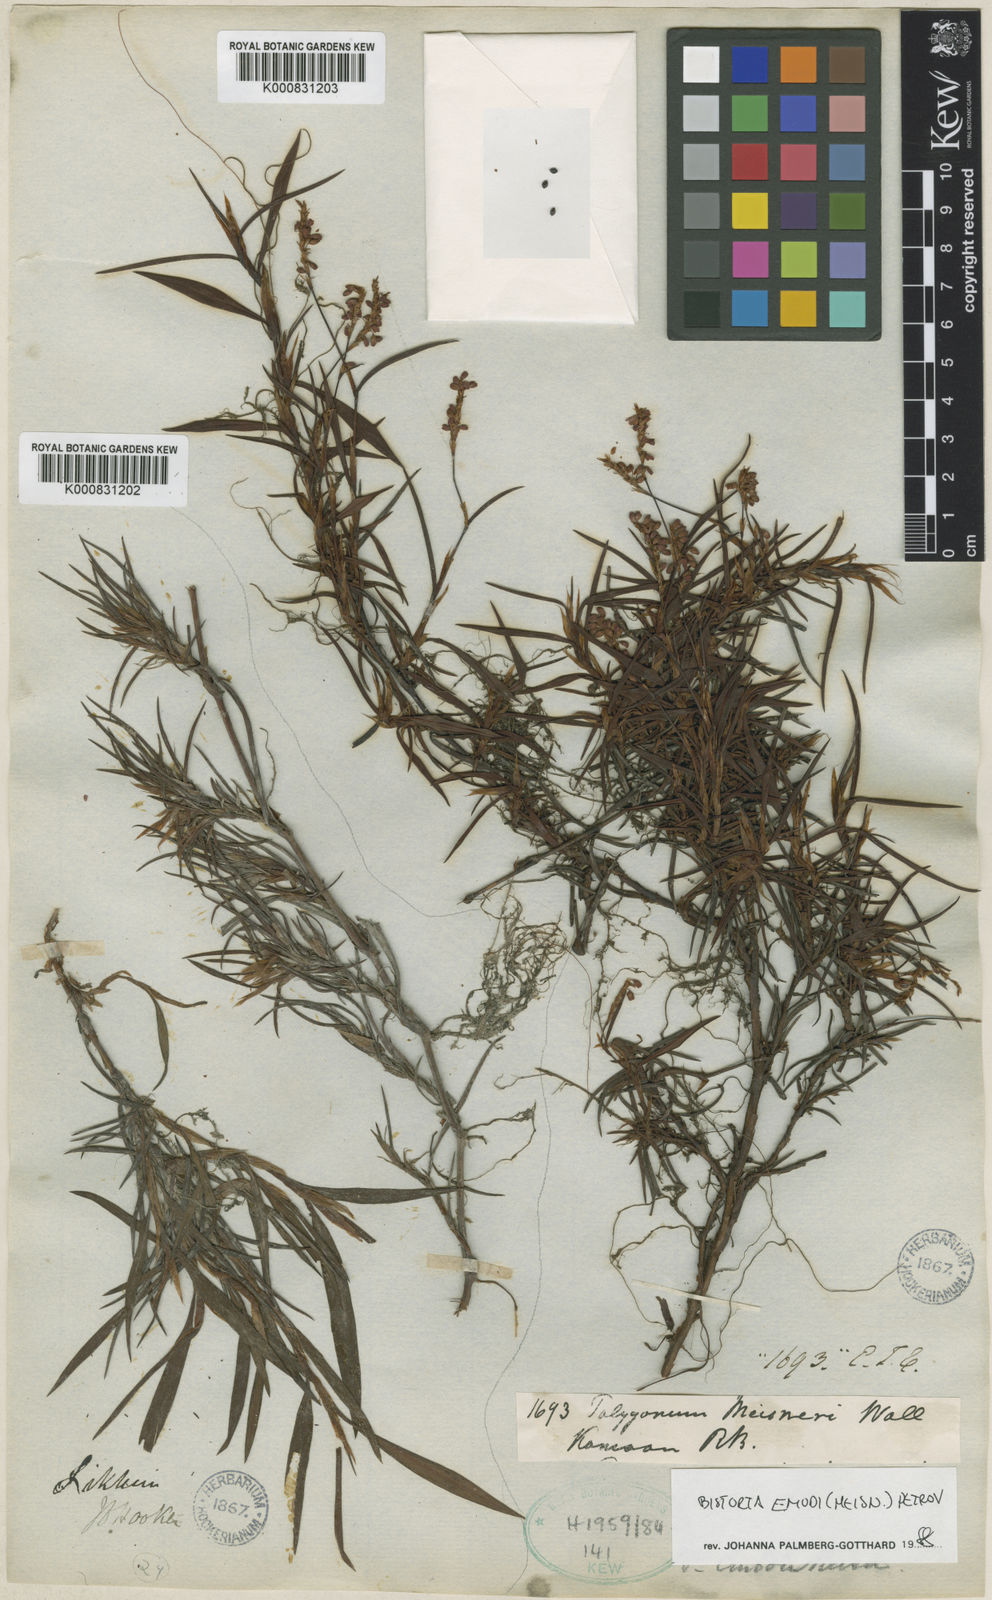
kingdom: Plantae
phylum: Tracheophyta
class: Magnoliopsida
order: Caryophyllales
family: Polygonaceae
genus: Bistorta
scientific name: Bistorta
